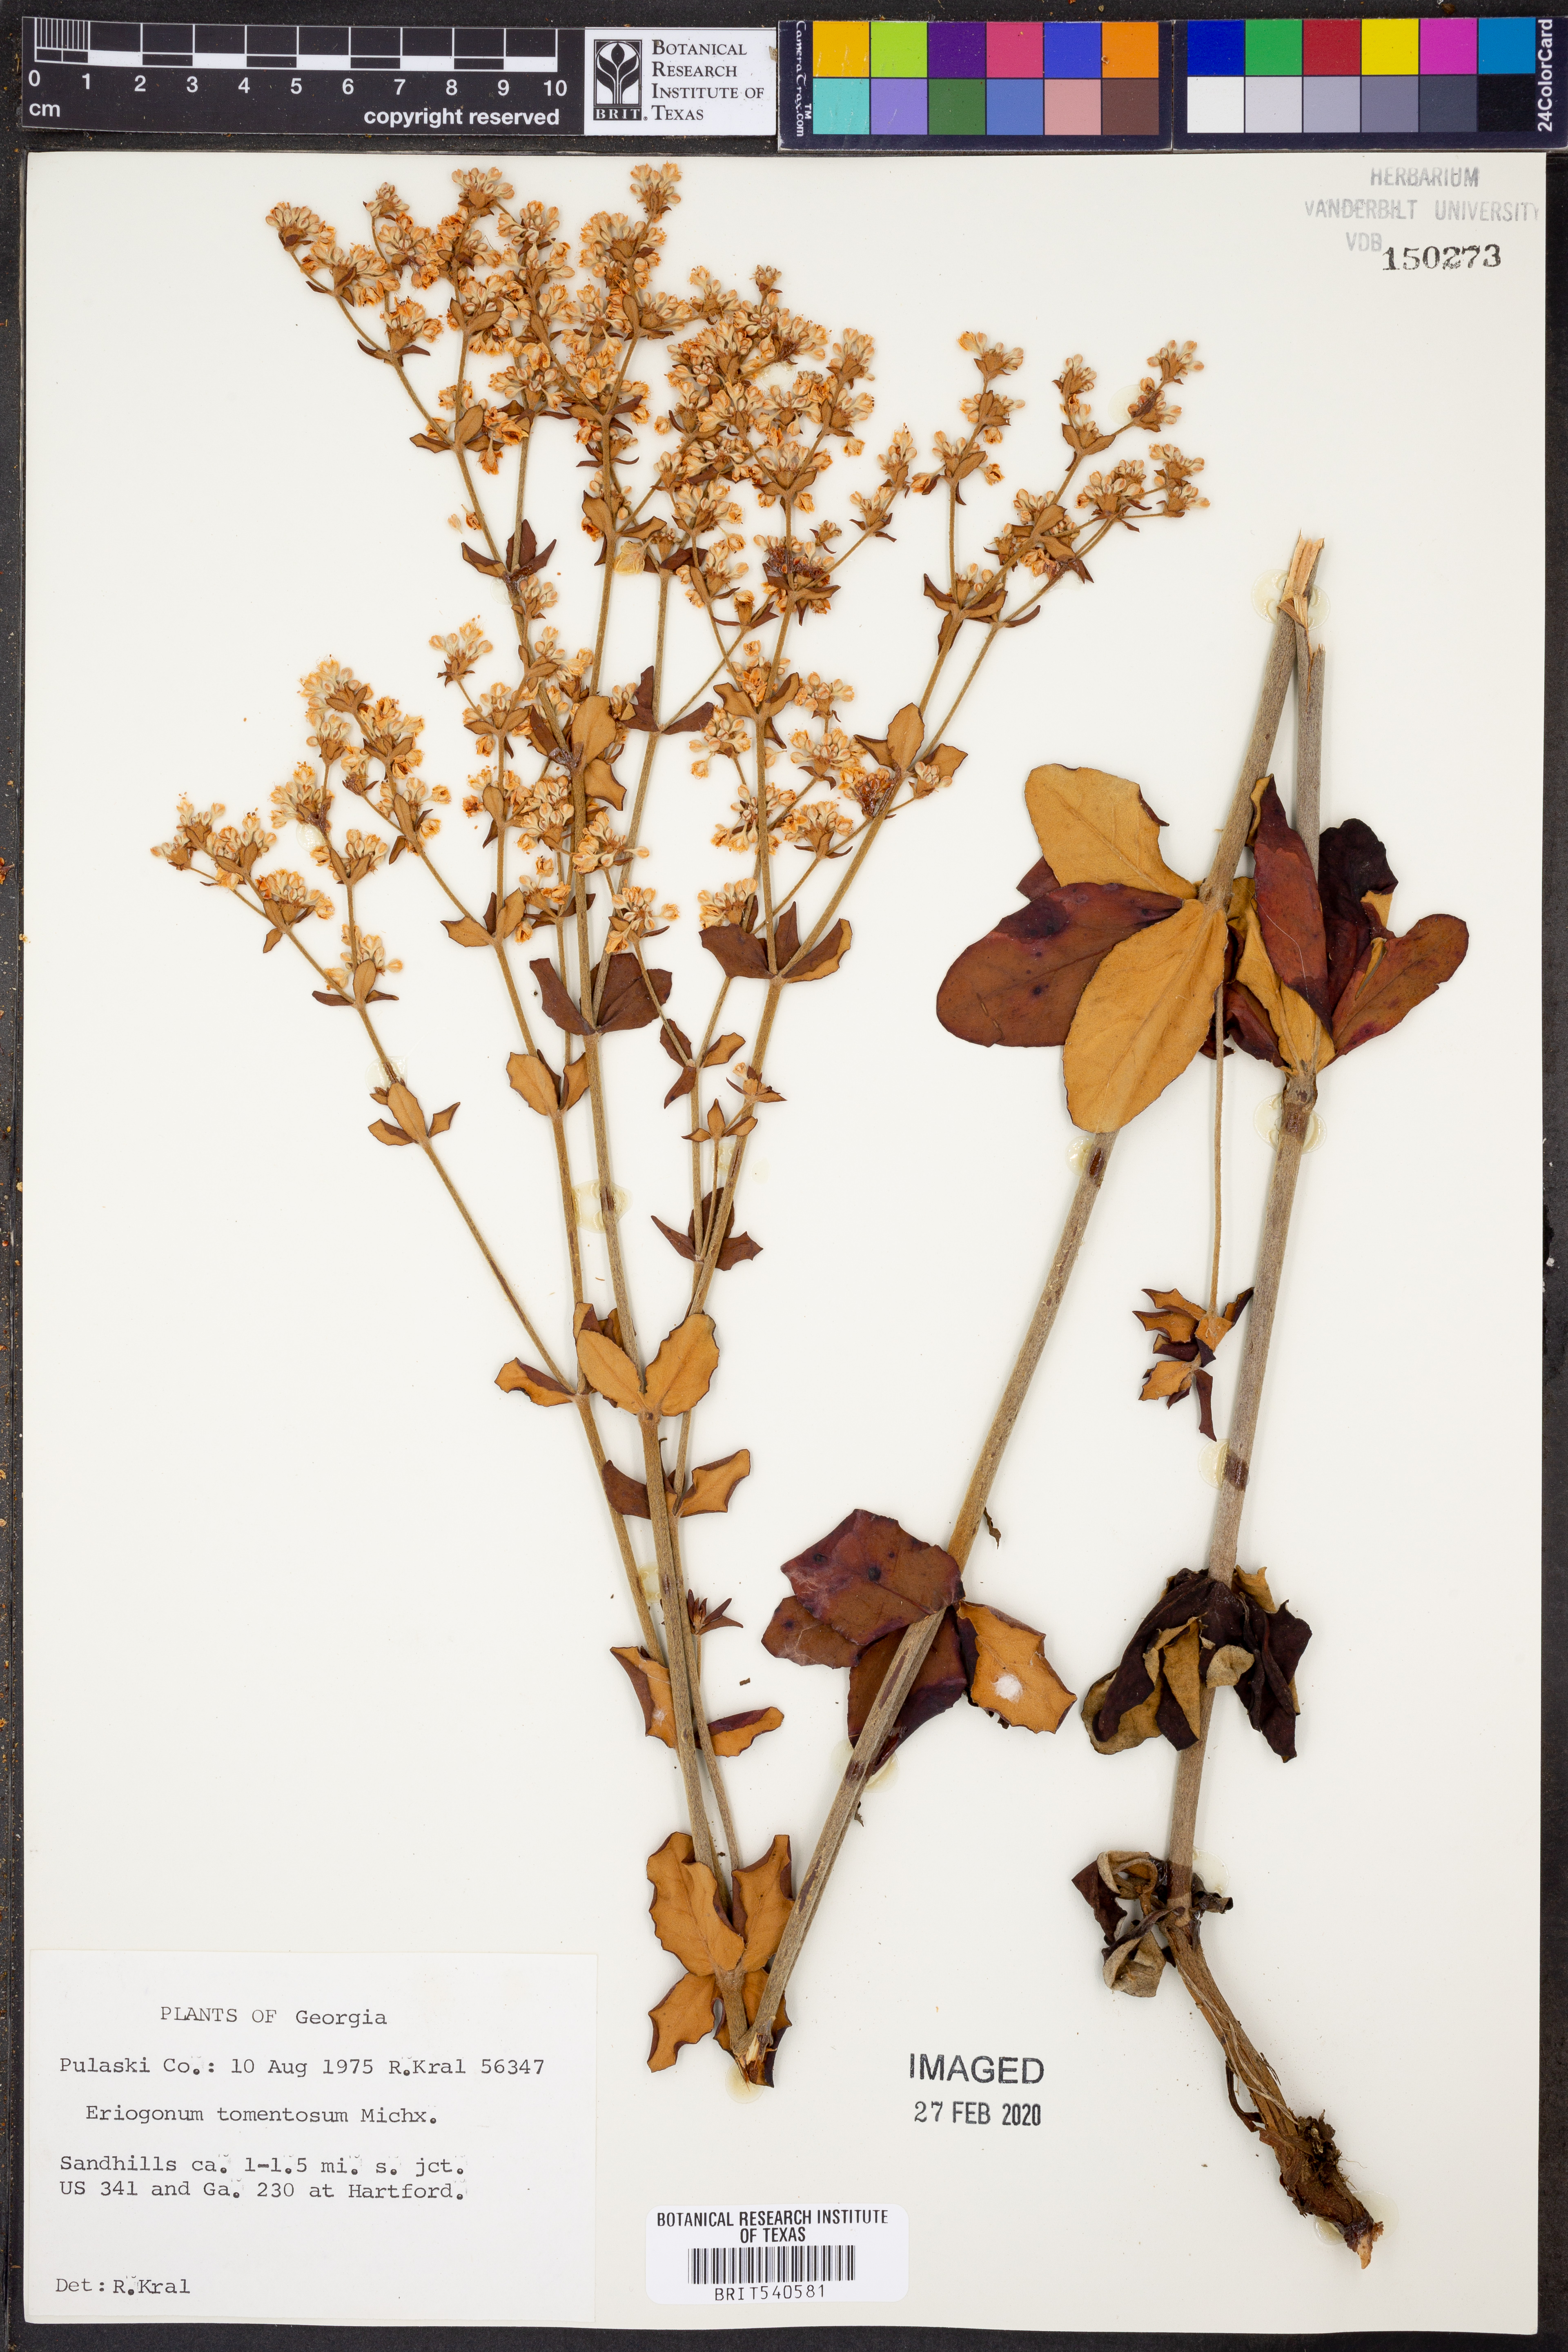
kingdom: Plantae
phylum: Tracheophyta
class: Magnoliopsida
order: Caryophyllales
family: Polygonaceae
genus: Eriogonum
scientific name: Eriogonum tomentosum
